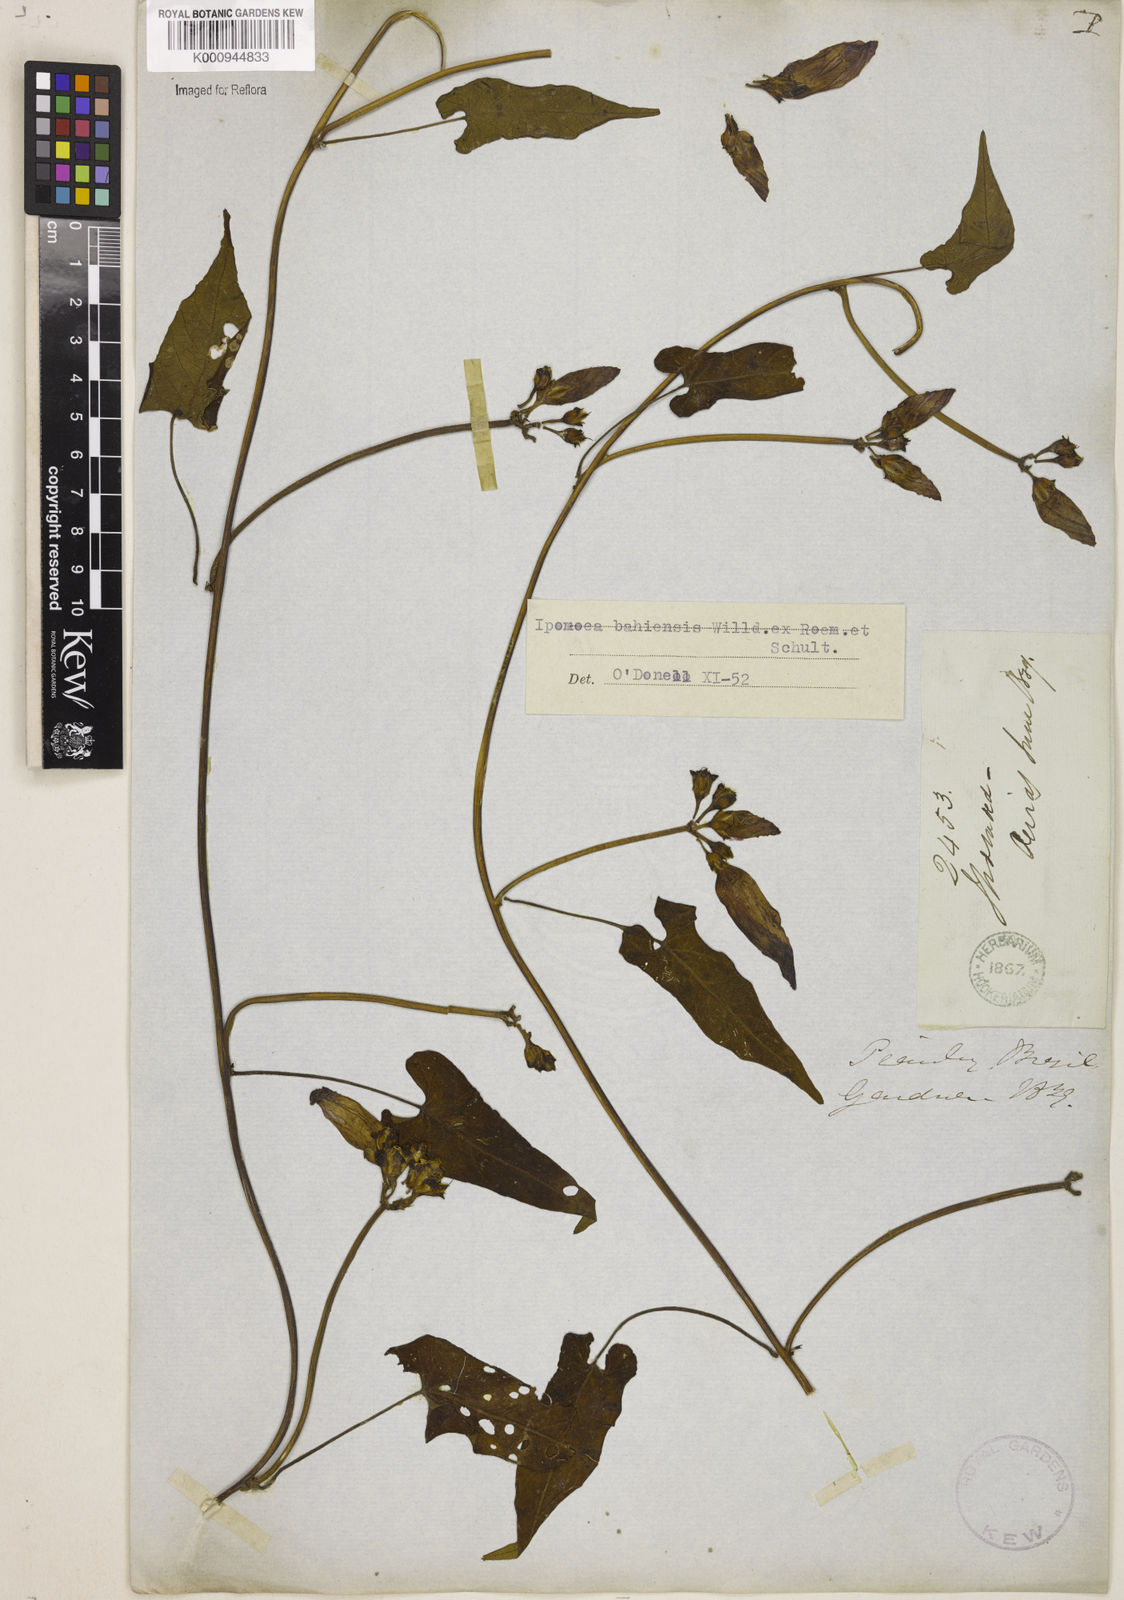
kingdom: Plantae
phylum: Tracheophyta
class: Magnoliopsida
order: Solanales
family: Convolvulaceae
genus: Ipomoea
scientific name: Ipomoea
